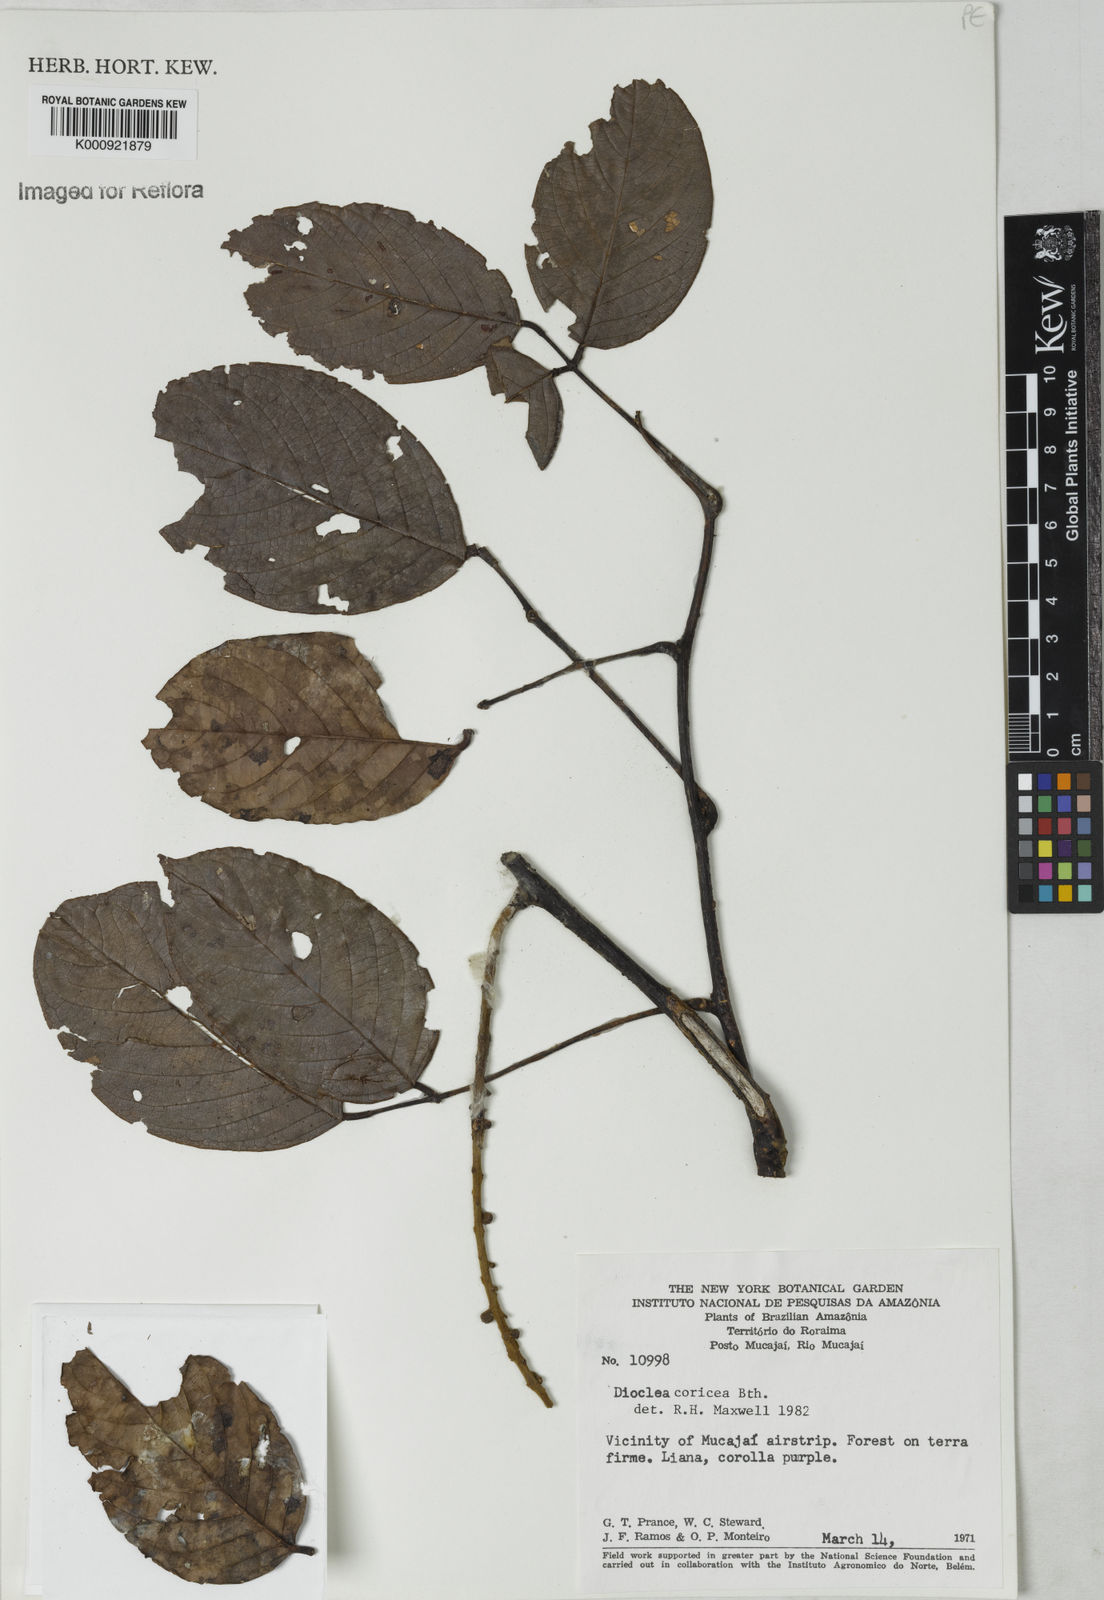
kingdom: Plantae
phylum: Tracheophyta
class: Magnoliopsida
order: Fabales
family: Fabaceae
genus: Macropsychanthus
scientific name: Macropsychanthus coriaceus
